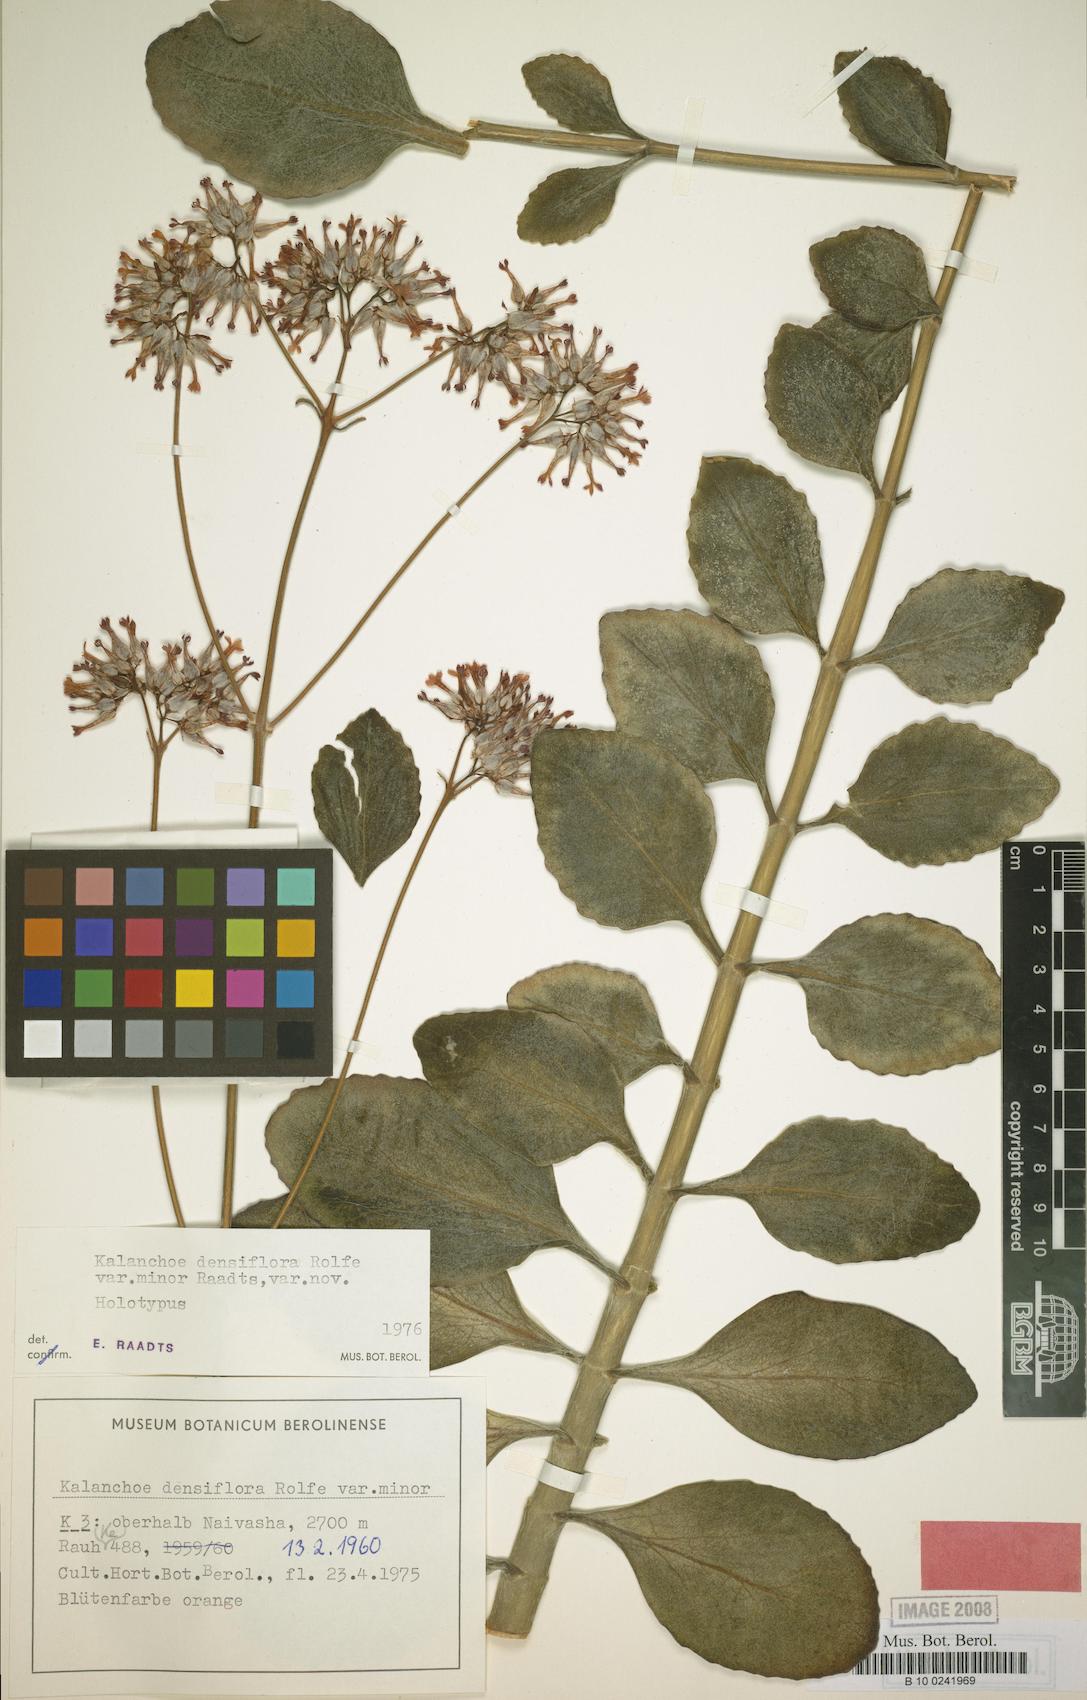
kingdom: Plantae
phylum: Tracheophyta
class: Magnoliopsida
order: Saxifragales
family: Crassulaceae
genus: Kalanchoe
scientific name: Kalanchoe densiflora
